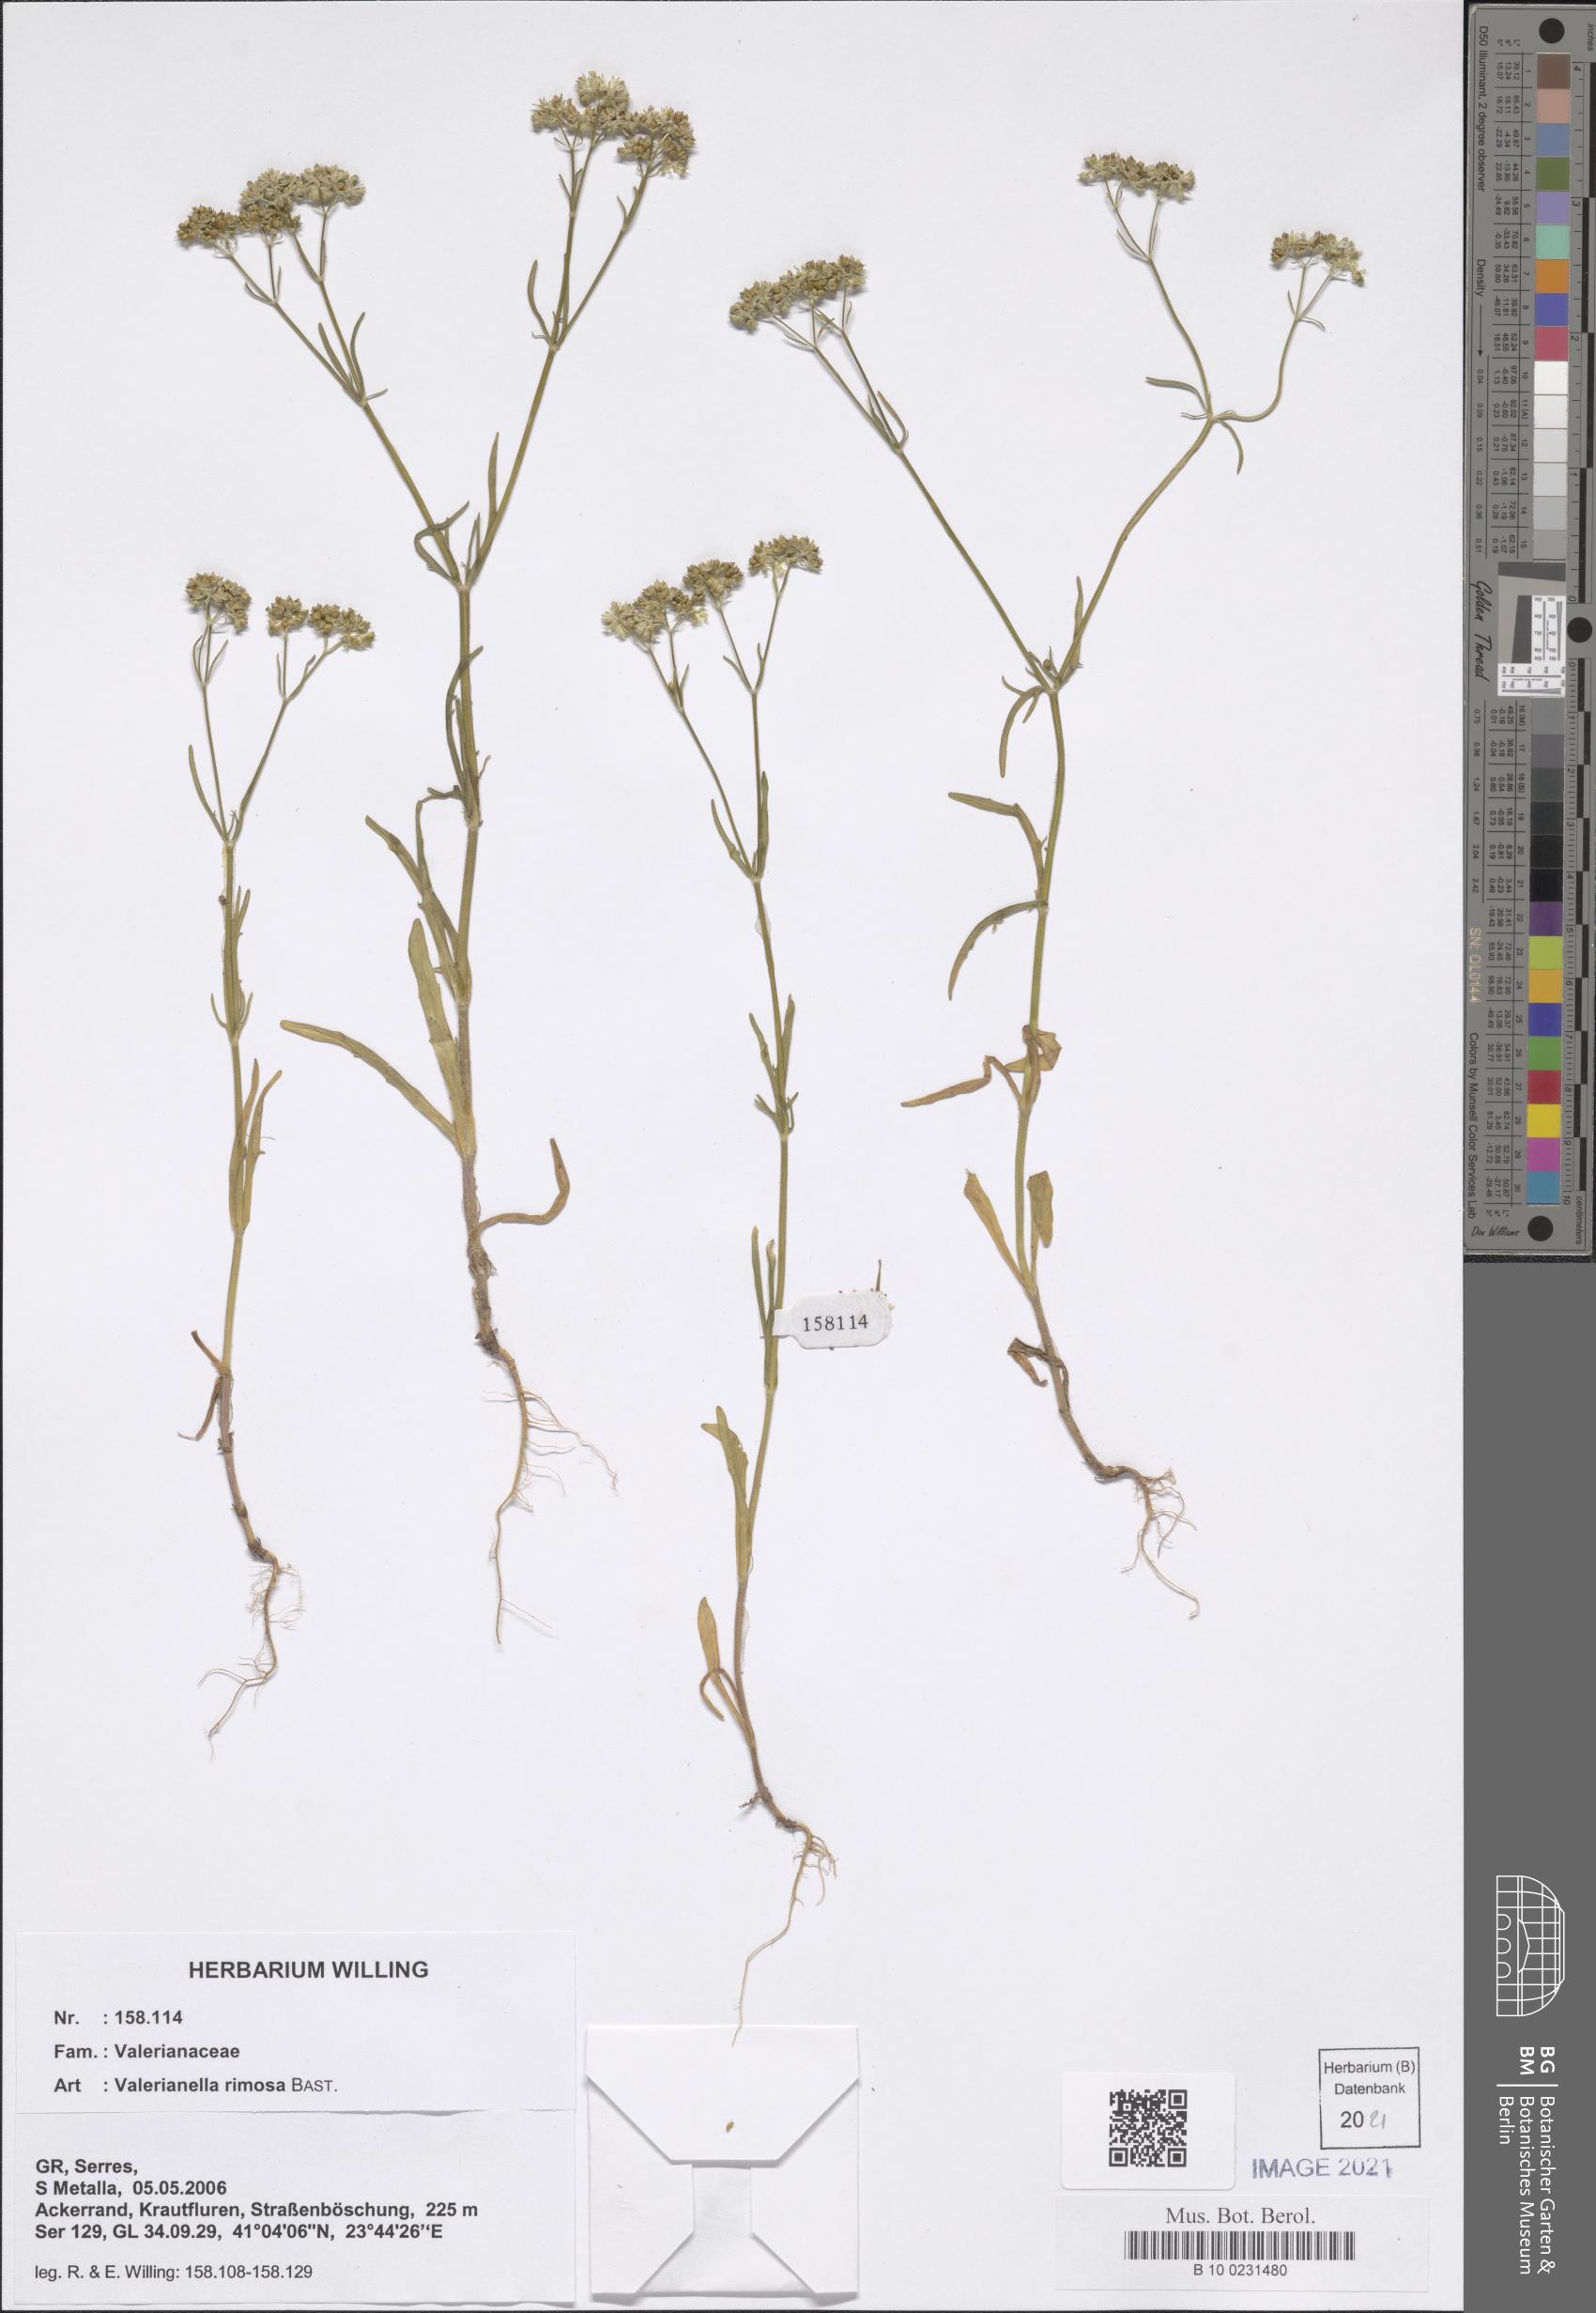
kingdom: Plantae
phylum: Tracheophyta
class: Magnoliopsida
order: Dipsacales
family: Caprifoliaceae
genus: Valerianella
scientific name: Valerianella rimosa
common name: Broad-fruited cornsalad
